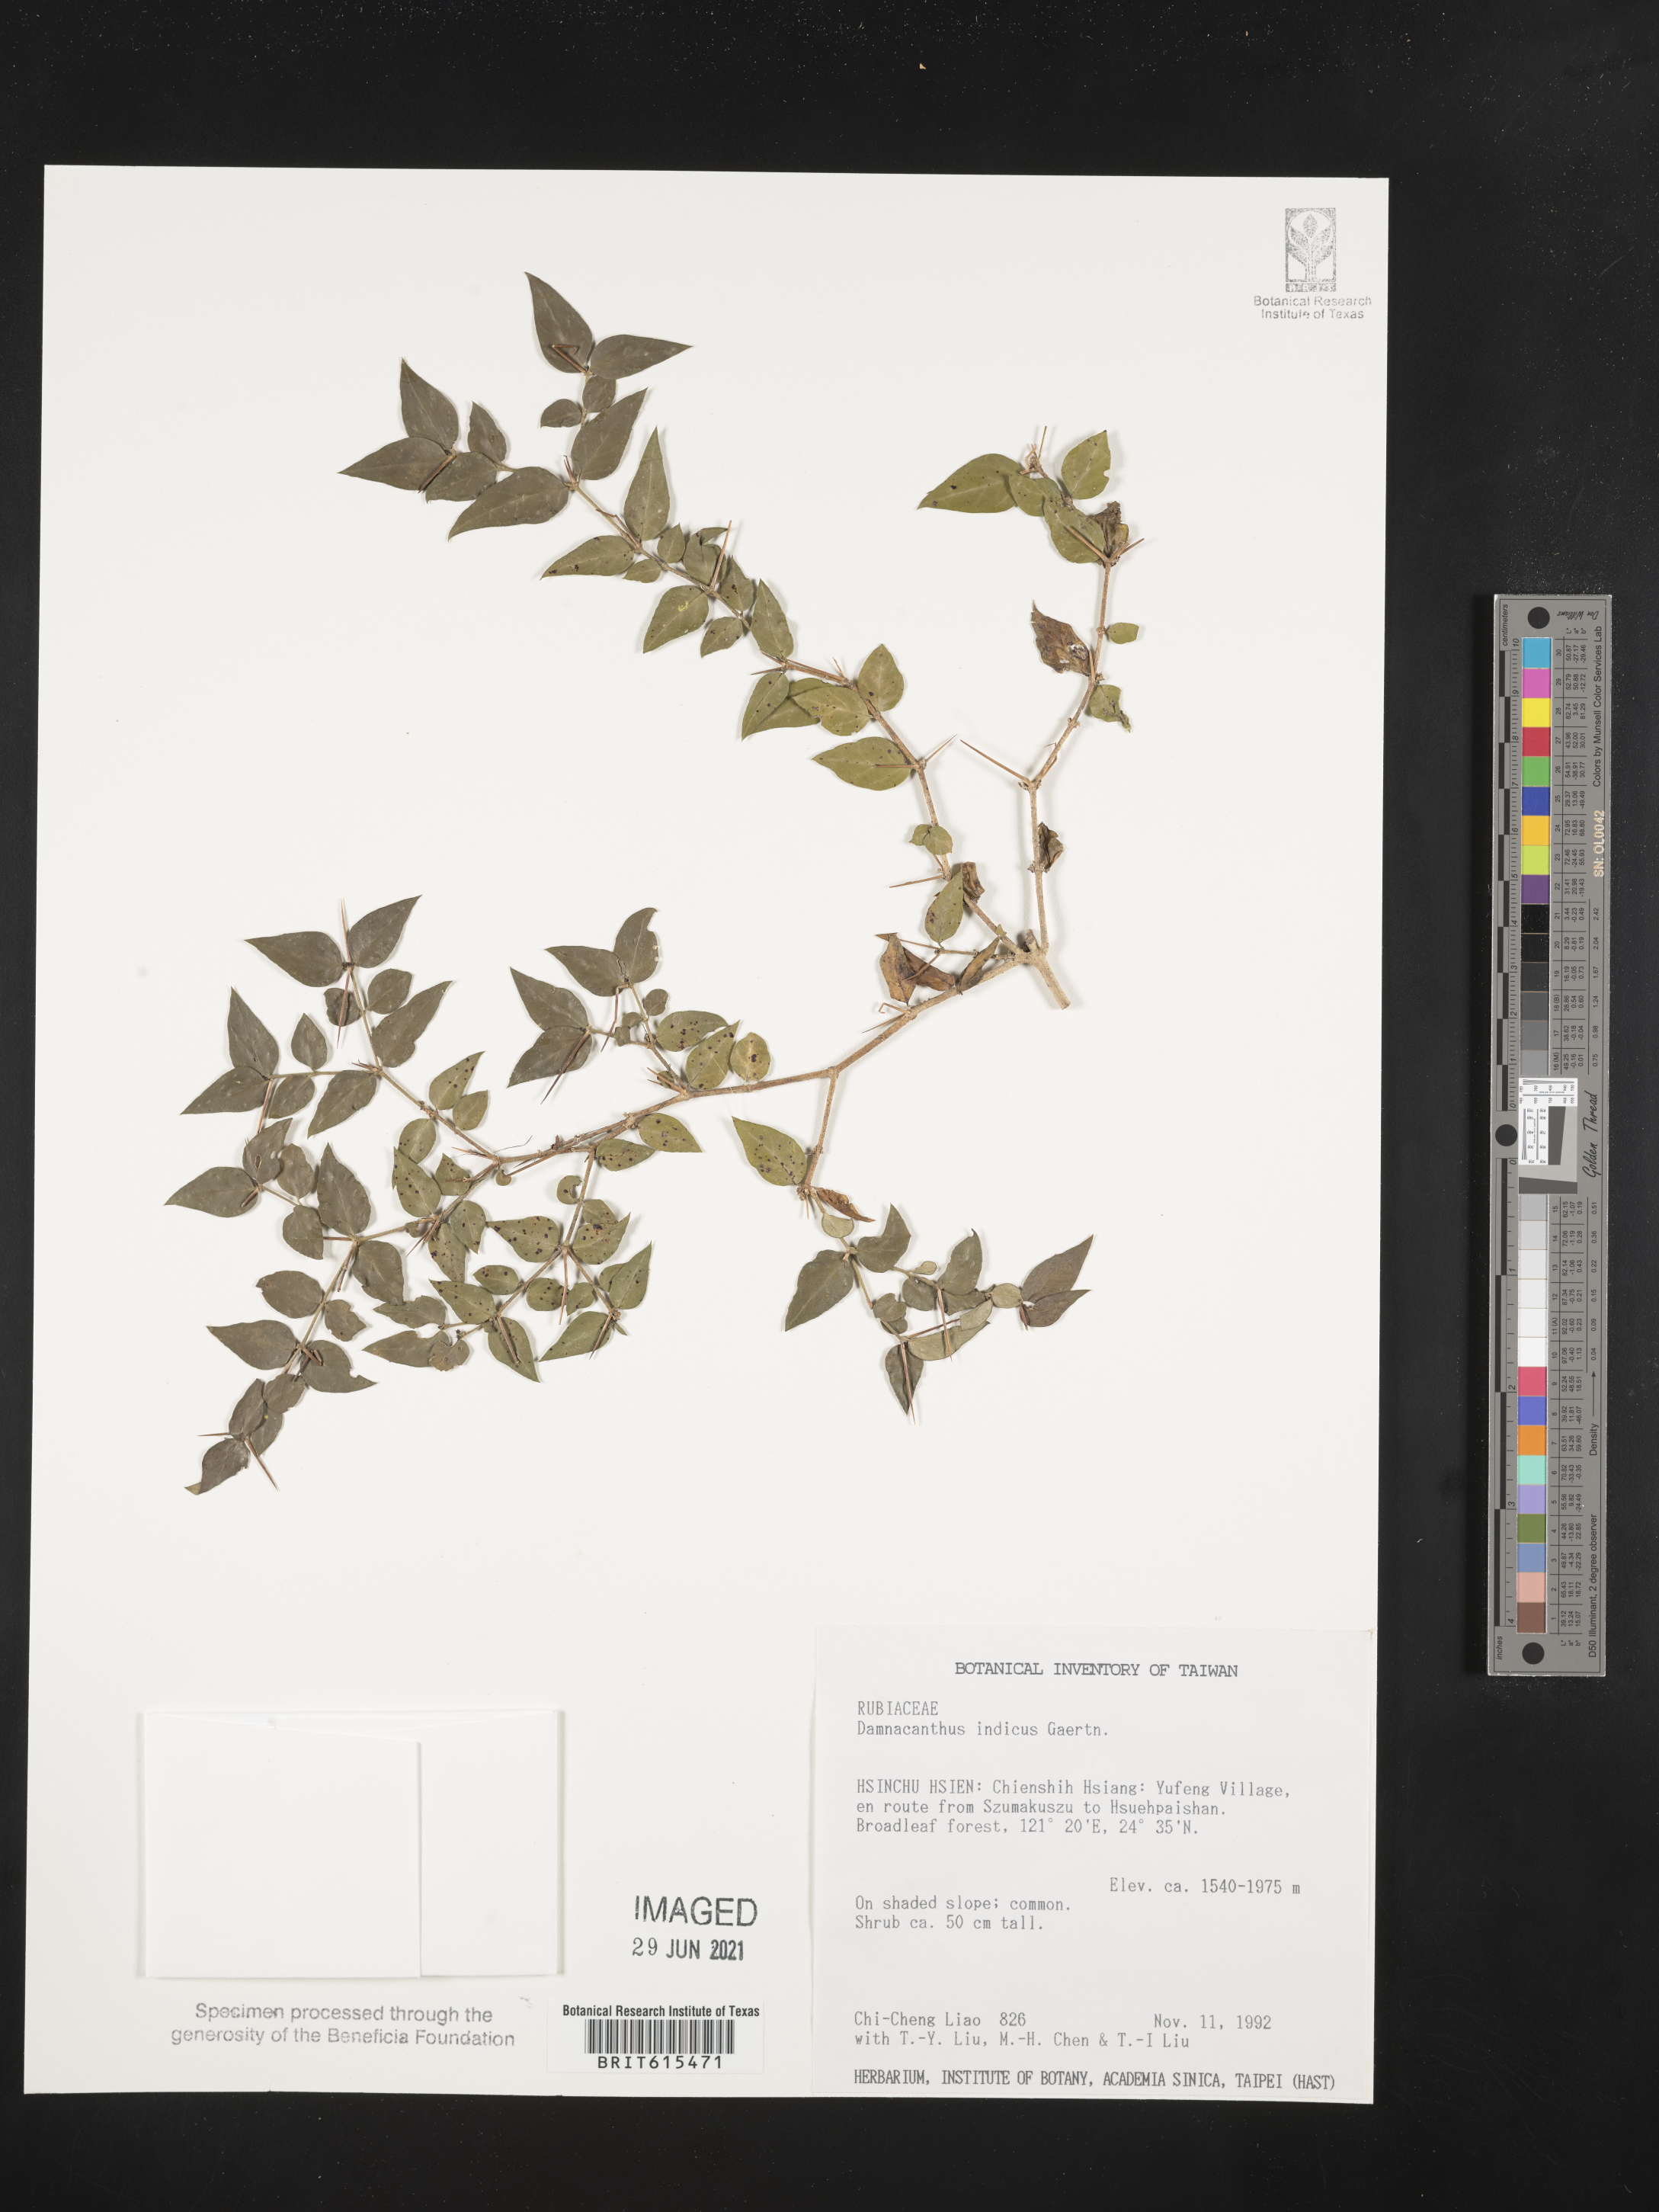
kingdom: Plantae
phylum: Tracheophyta
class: Magnoliopsida
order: Gentianales
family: Rubiaceae
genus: Damnacanthus
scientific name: Damnacanthus indicus
